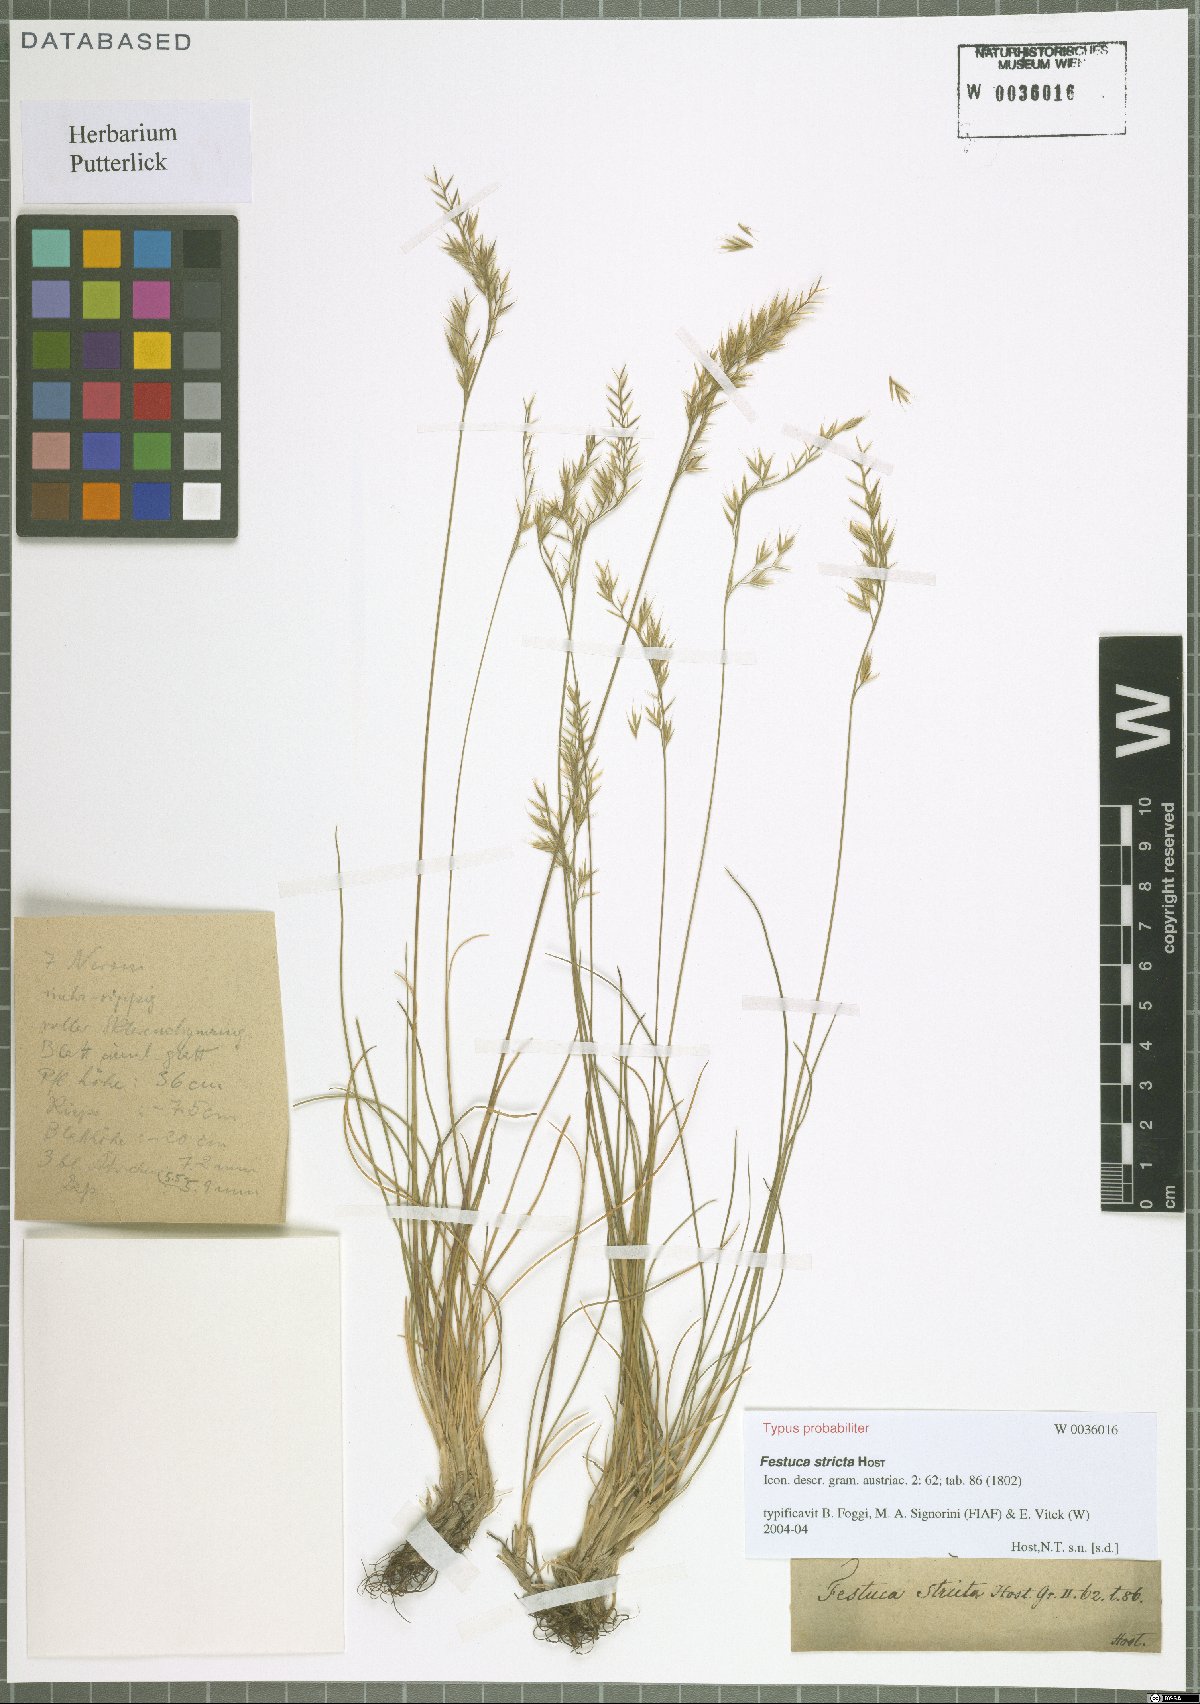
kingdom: Plantae
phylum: Tracheophyta
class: Liliopsida
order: Poales
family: Poaceae
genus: Festuca
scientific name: Festuca stricta
